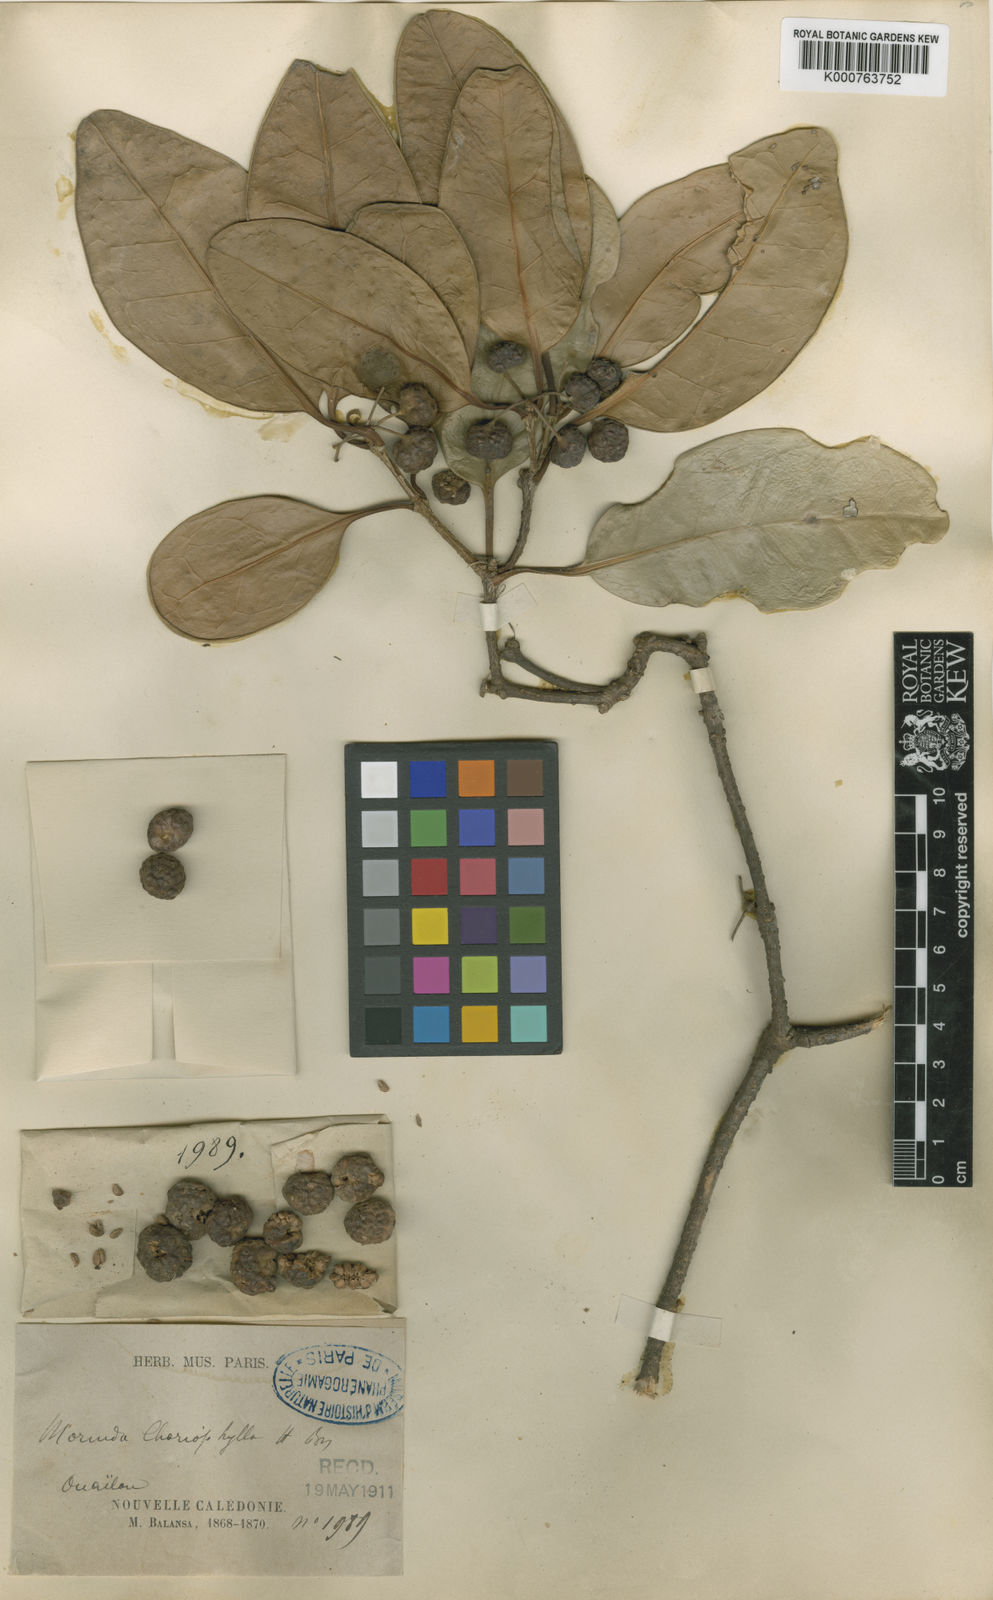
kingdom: Plantae
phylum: Tracheophyta
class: Magnoliopsida
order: Gentianales
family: Rubiaceae
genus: Gynochthodes
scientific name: Gynochthodes myrtifolia
